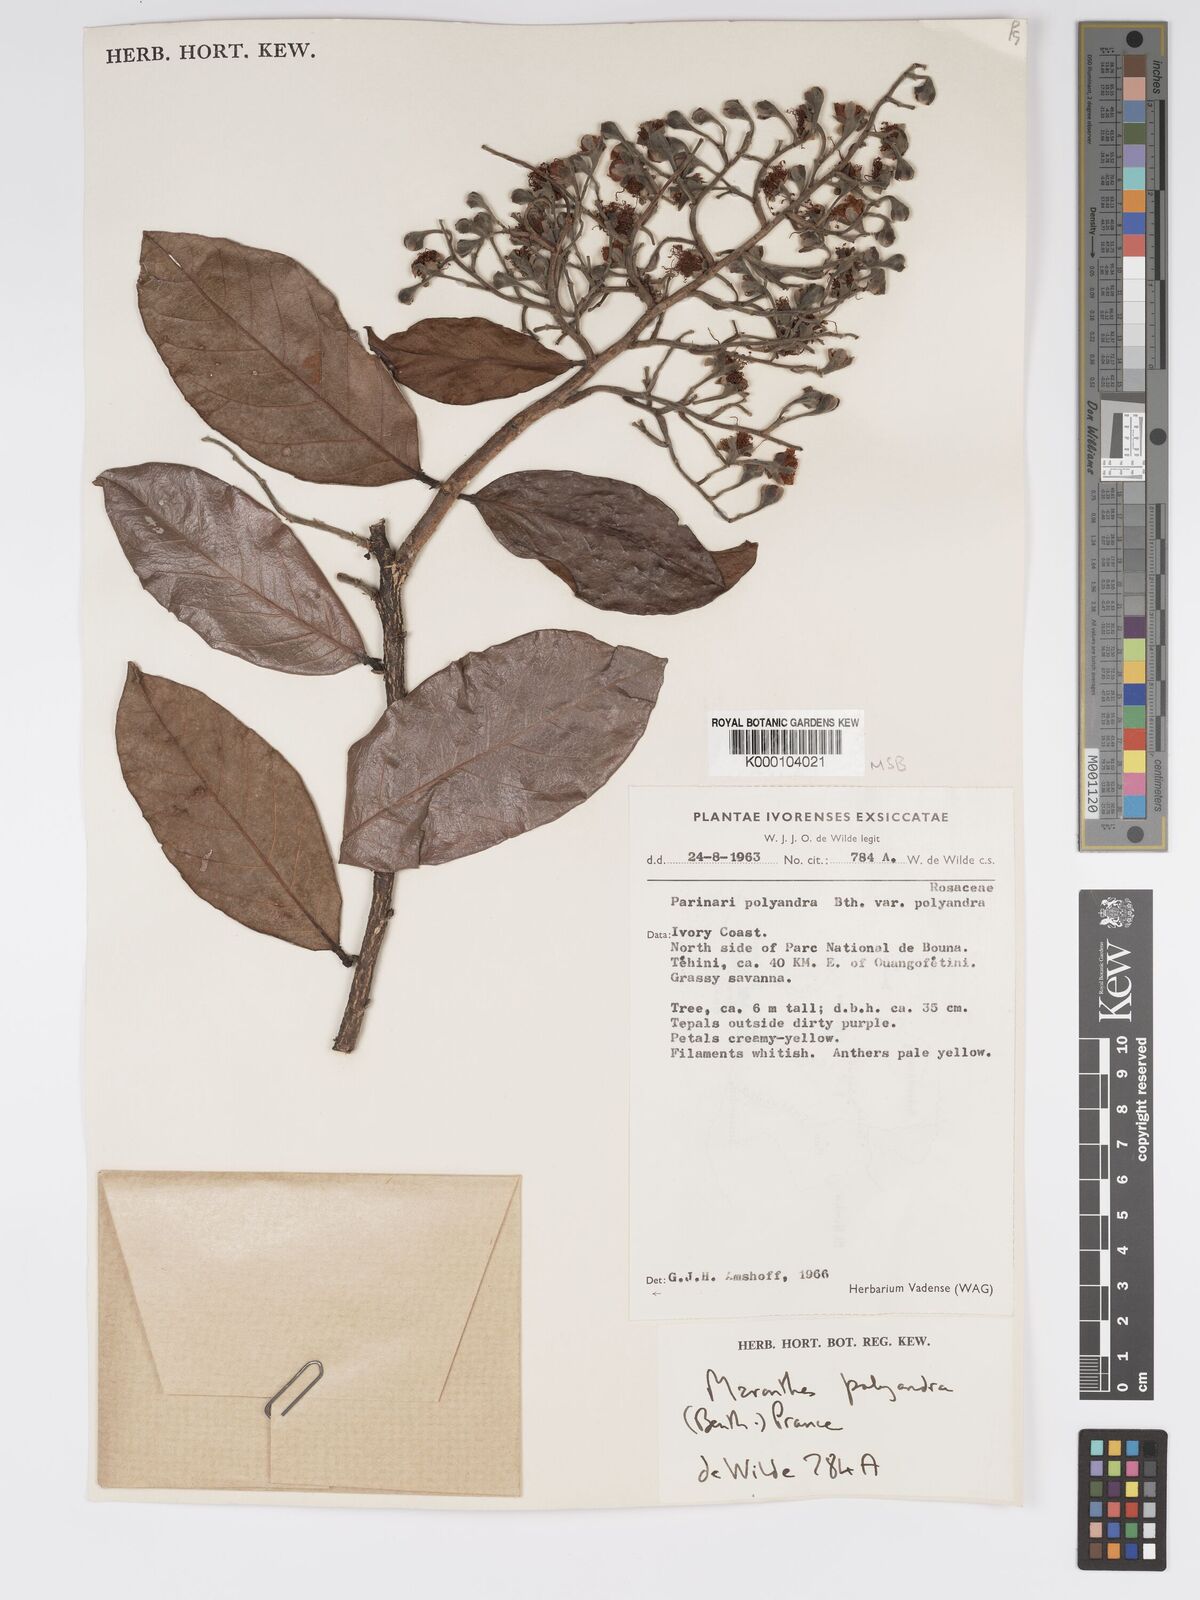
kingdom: Plantae
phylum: Tracheophyta
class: Magnoliopsida
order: Malpighiales
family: Chrysobalanaceae
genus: Maranthes
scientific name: Maranthes polyandra
